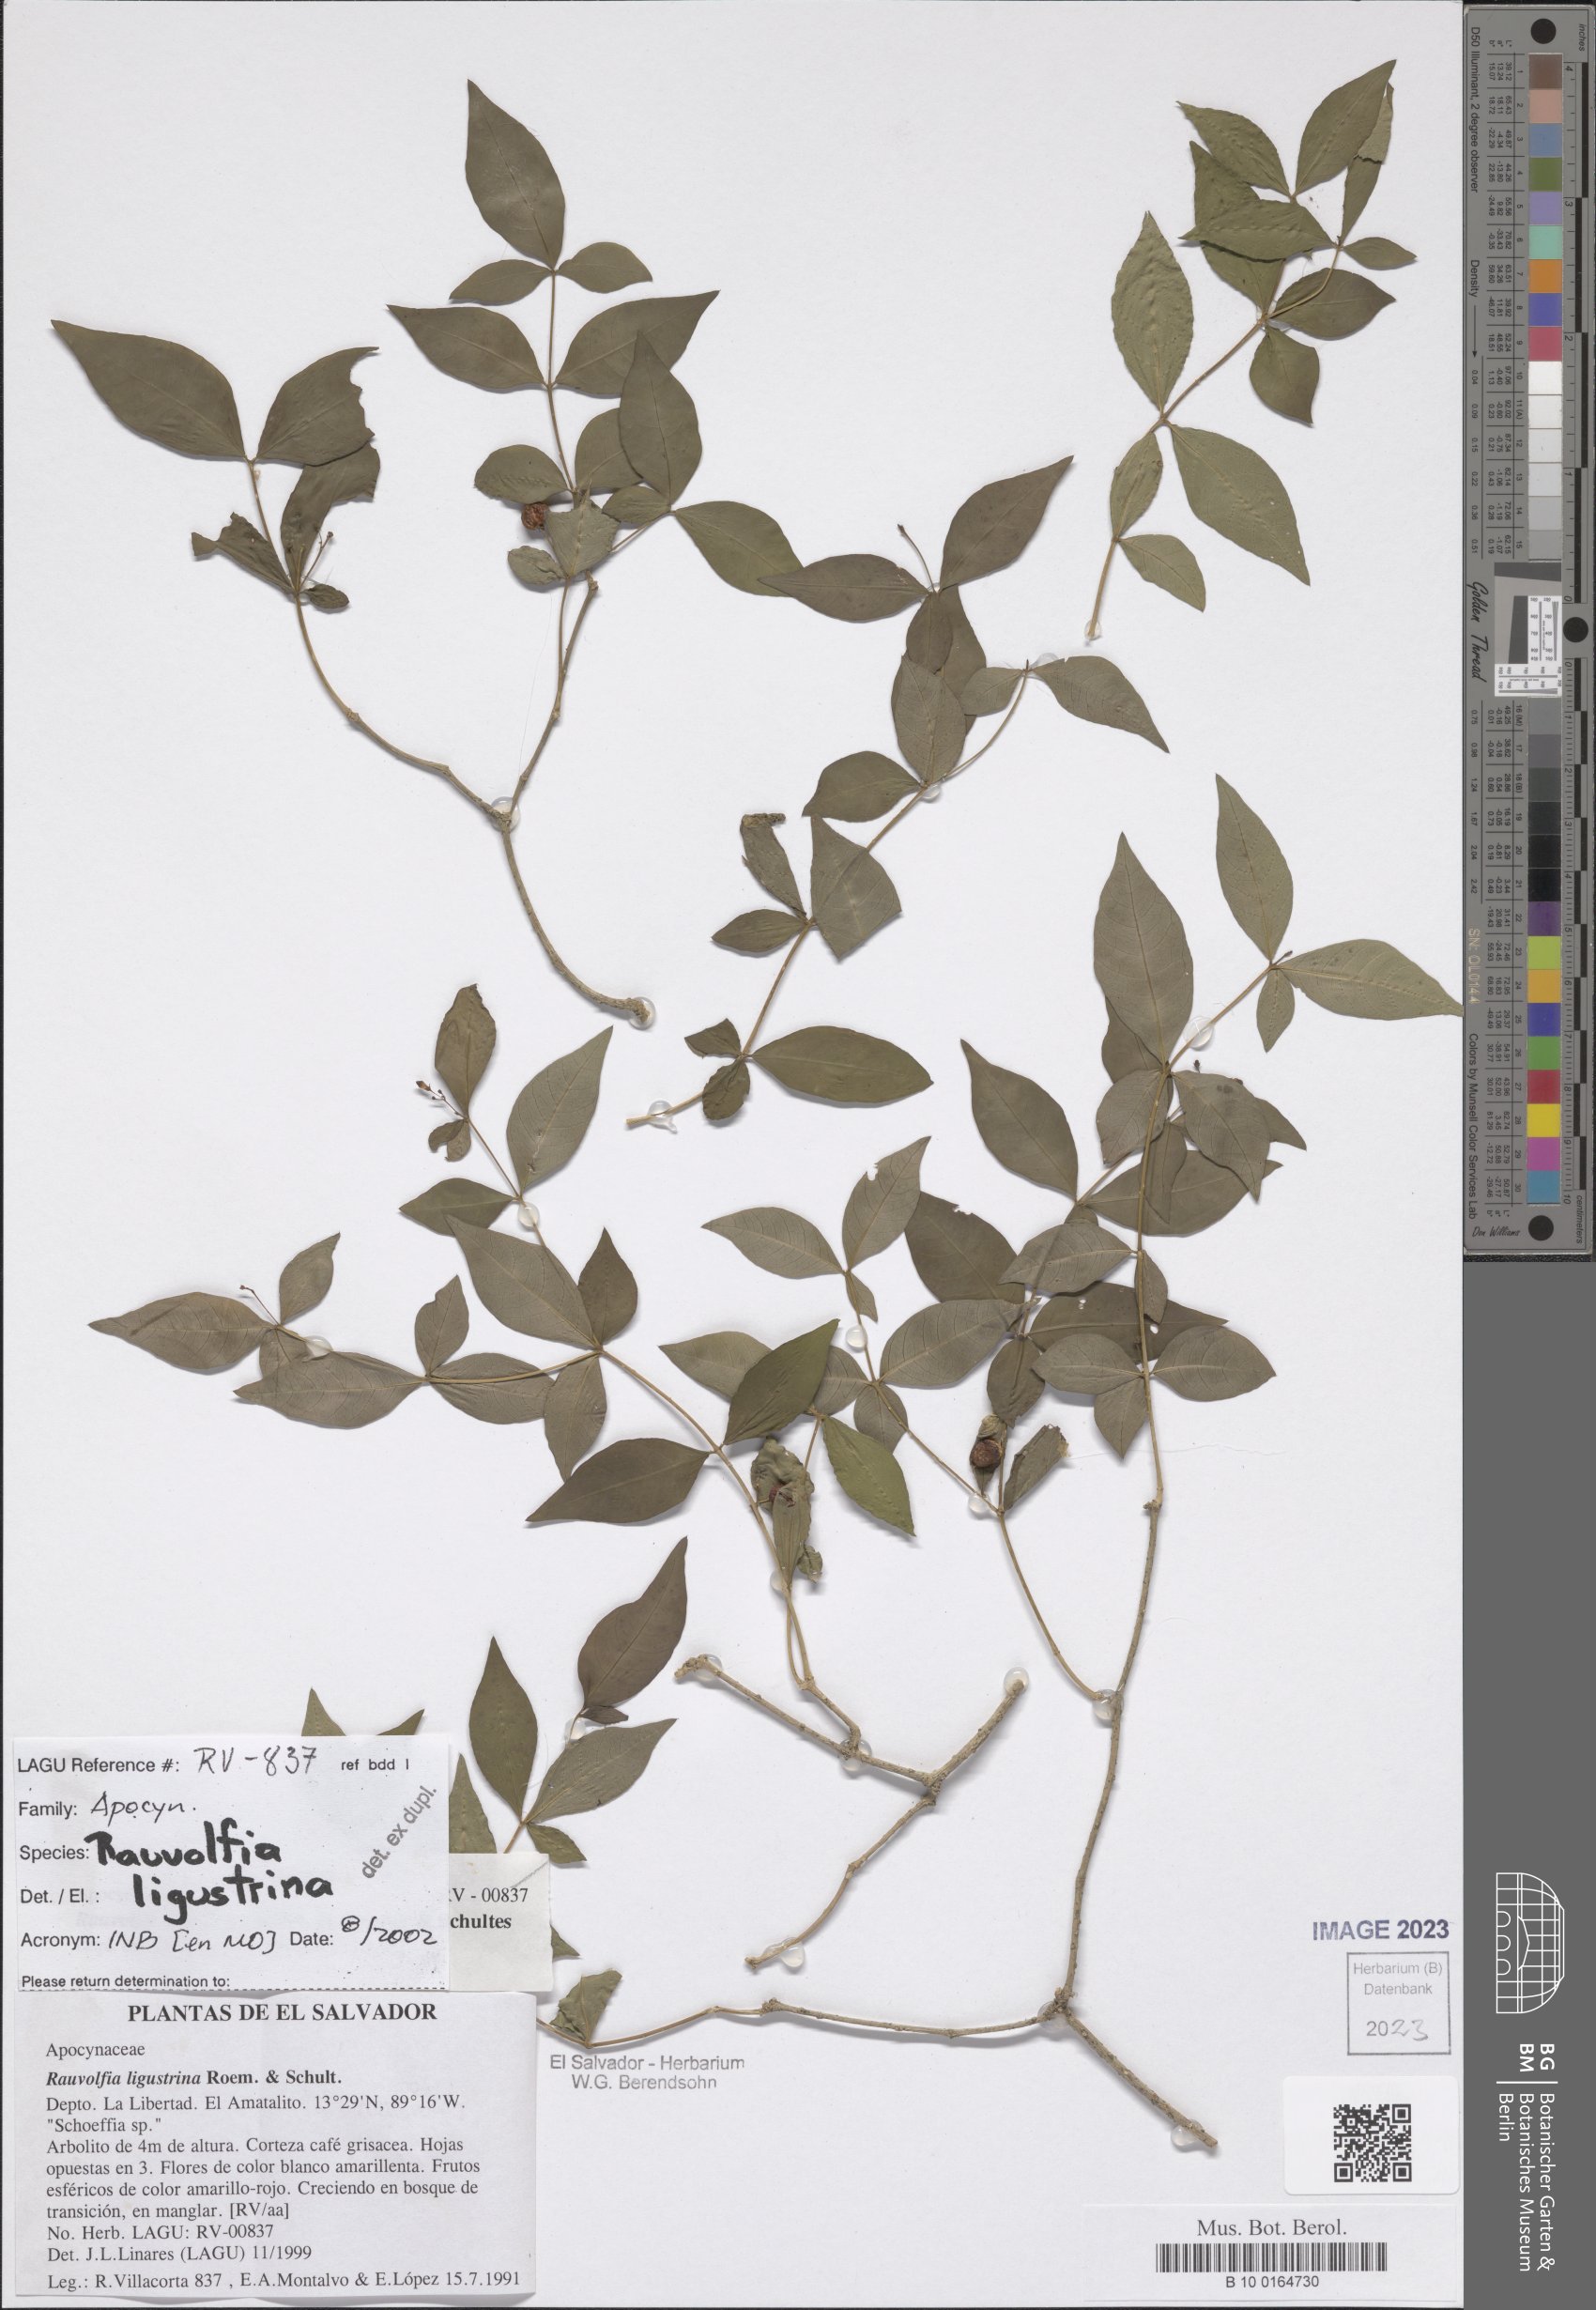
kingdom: Plantae
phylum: Tracheophyta
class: Magnoliopsida
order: Gentianales
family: Apocynaceae
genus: Rauvolfia
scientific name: Rauvolfia ligustrina
